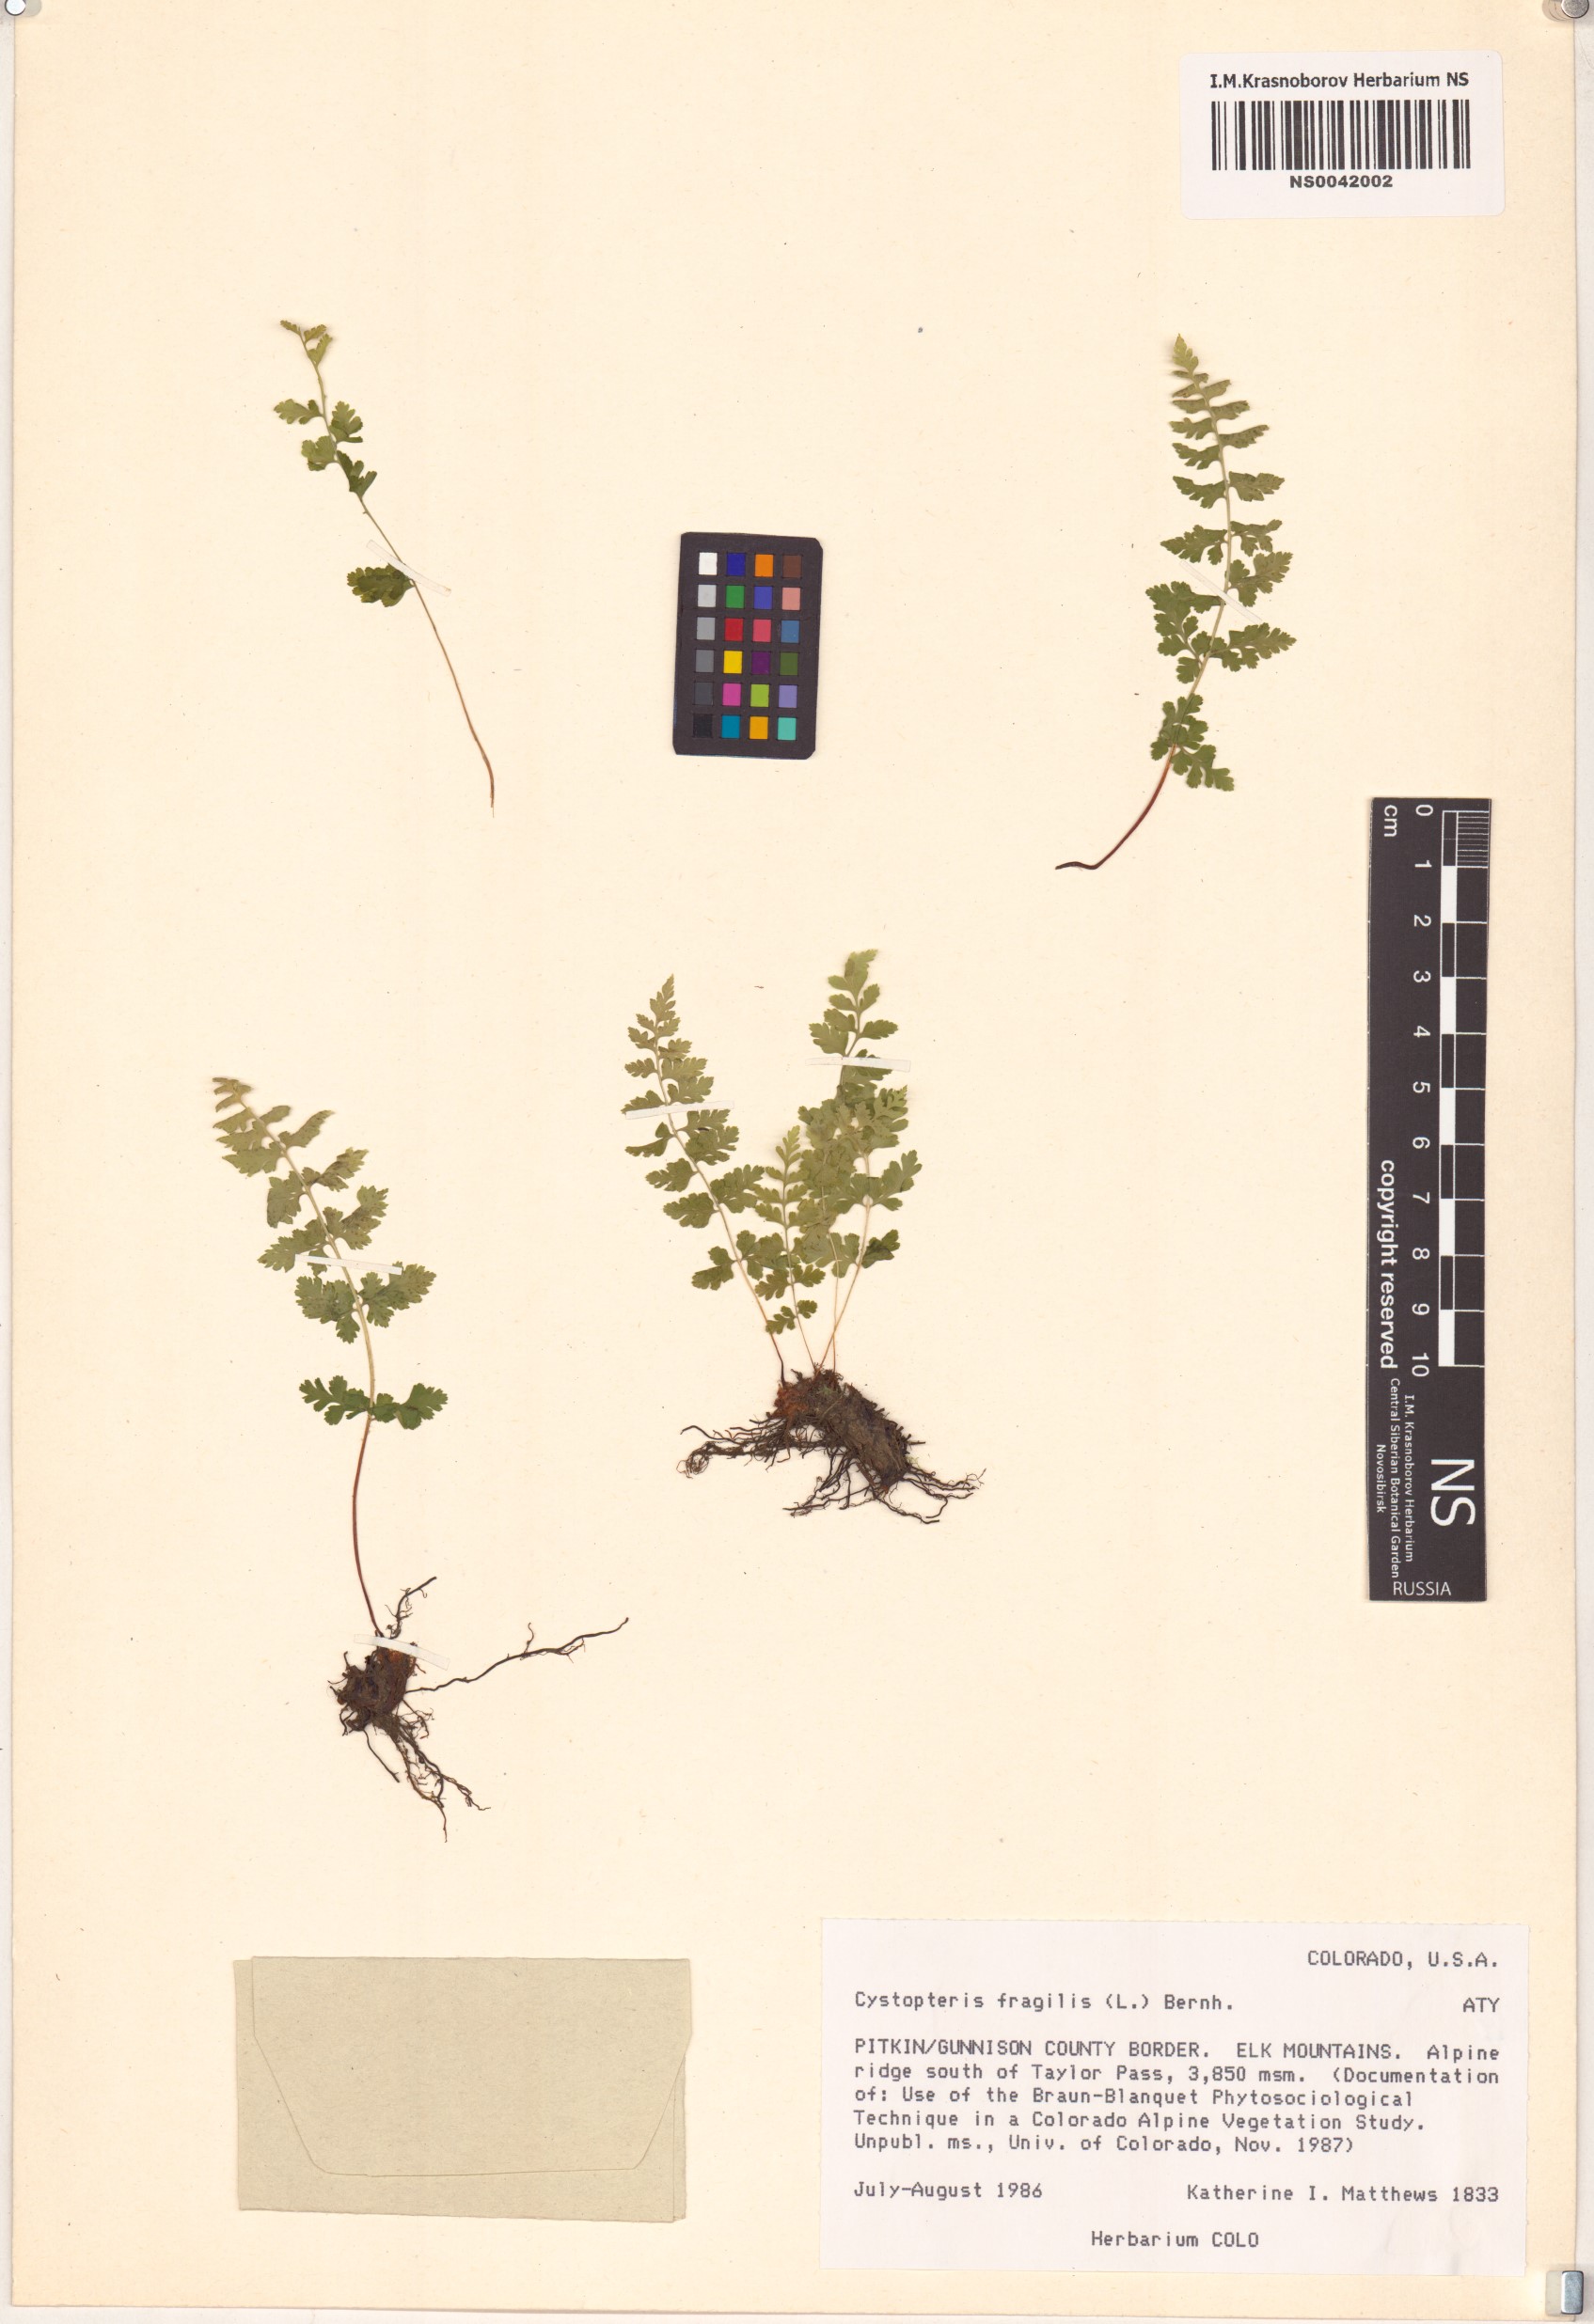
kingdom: Plantae
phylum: Tracheophyta
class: Polypodiopsida
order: Polypodiales
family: Cystopteridaceae
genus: Cystopteris
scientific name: Cystopteris fragilis
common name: Brittle bladder fern
